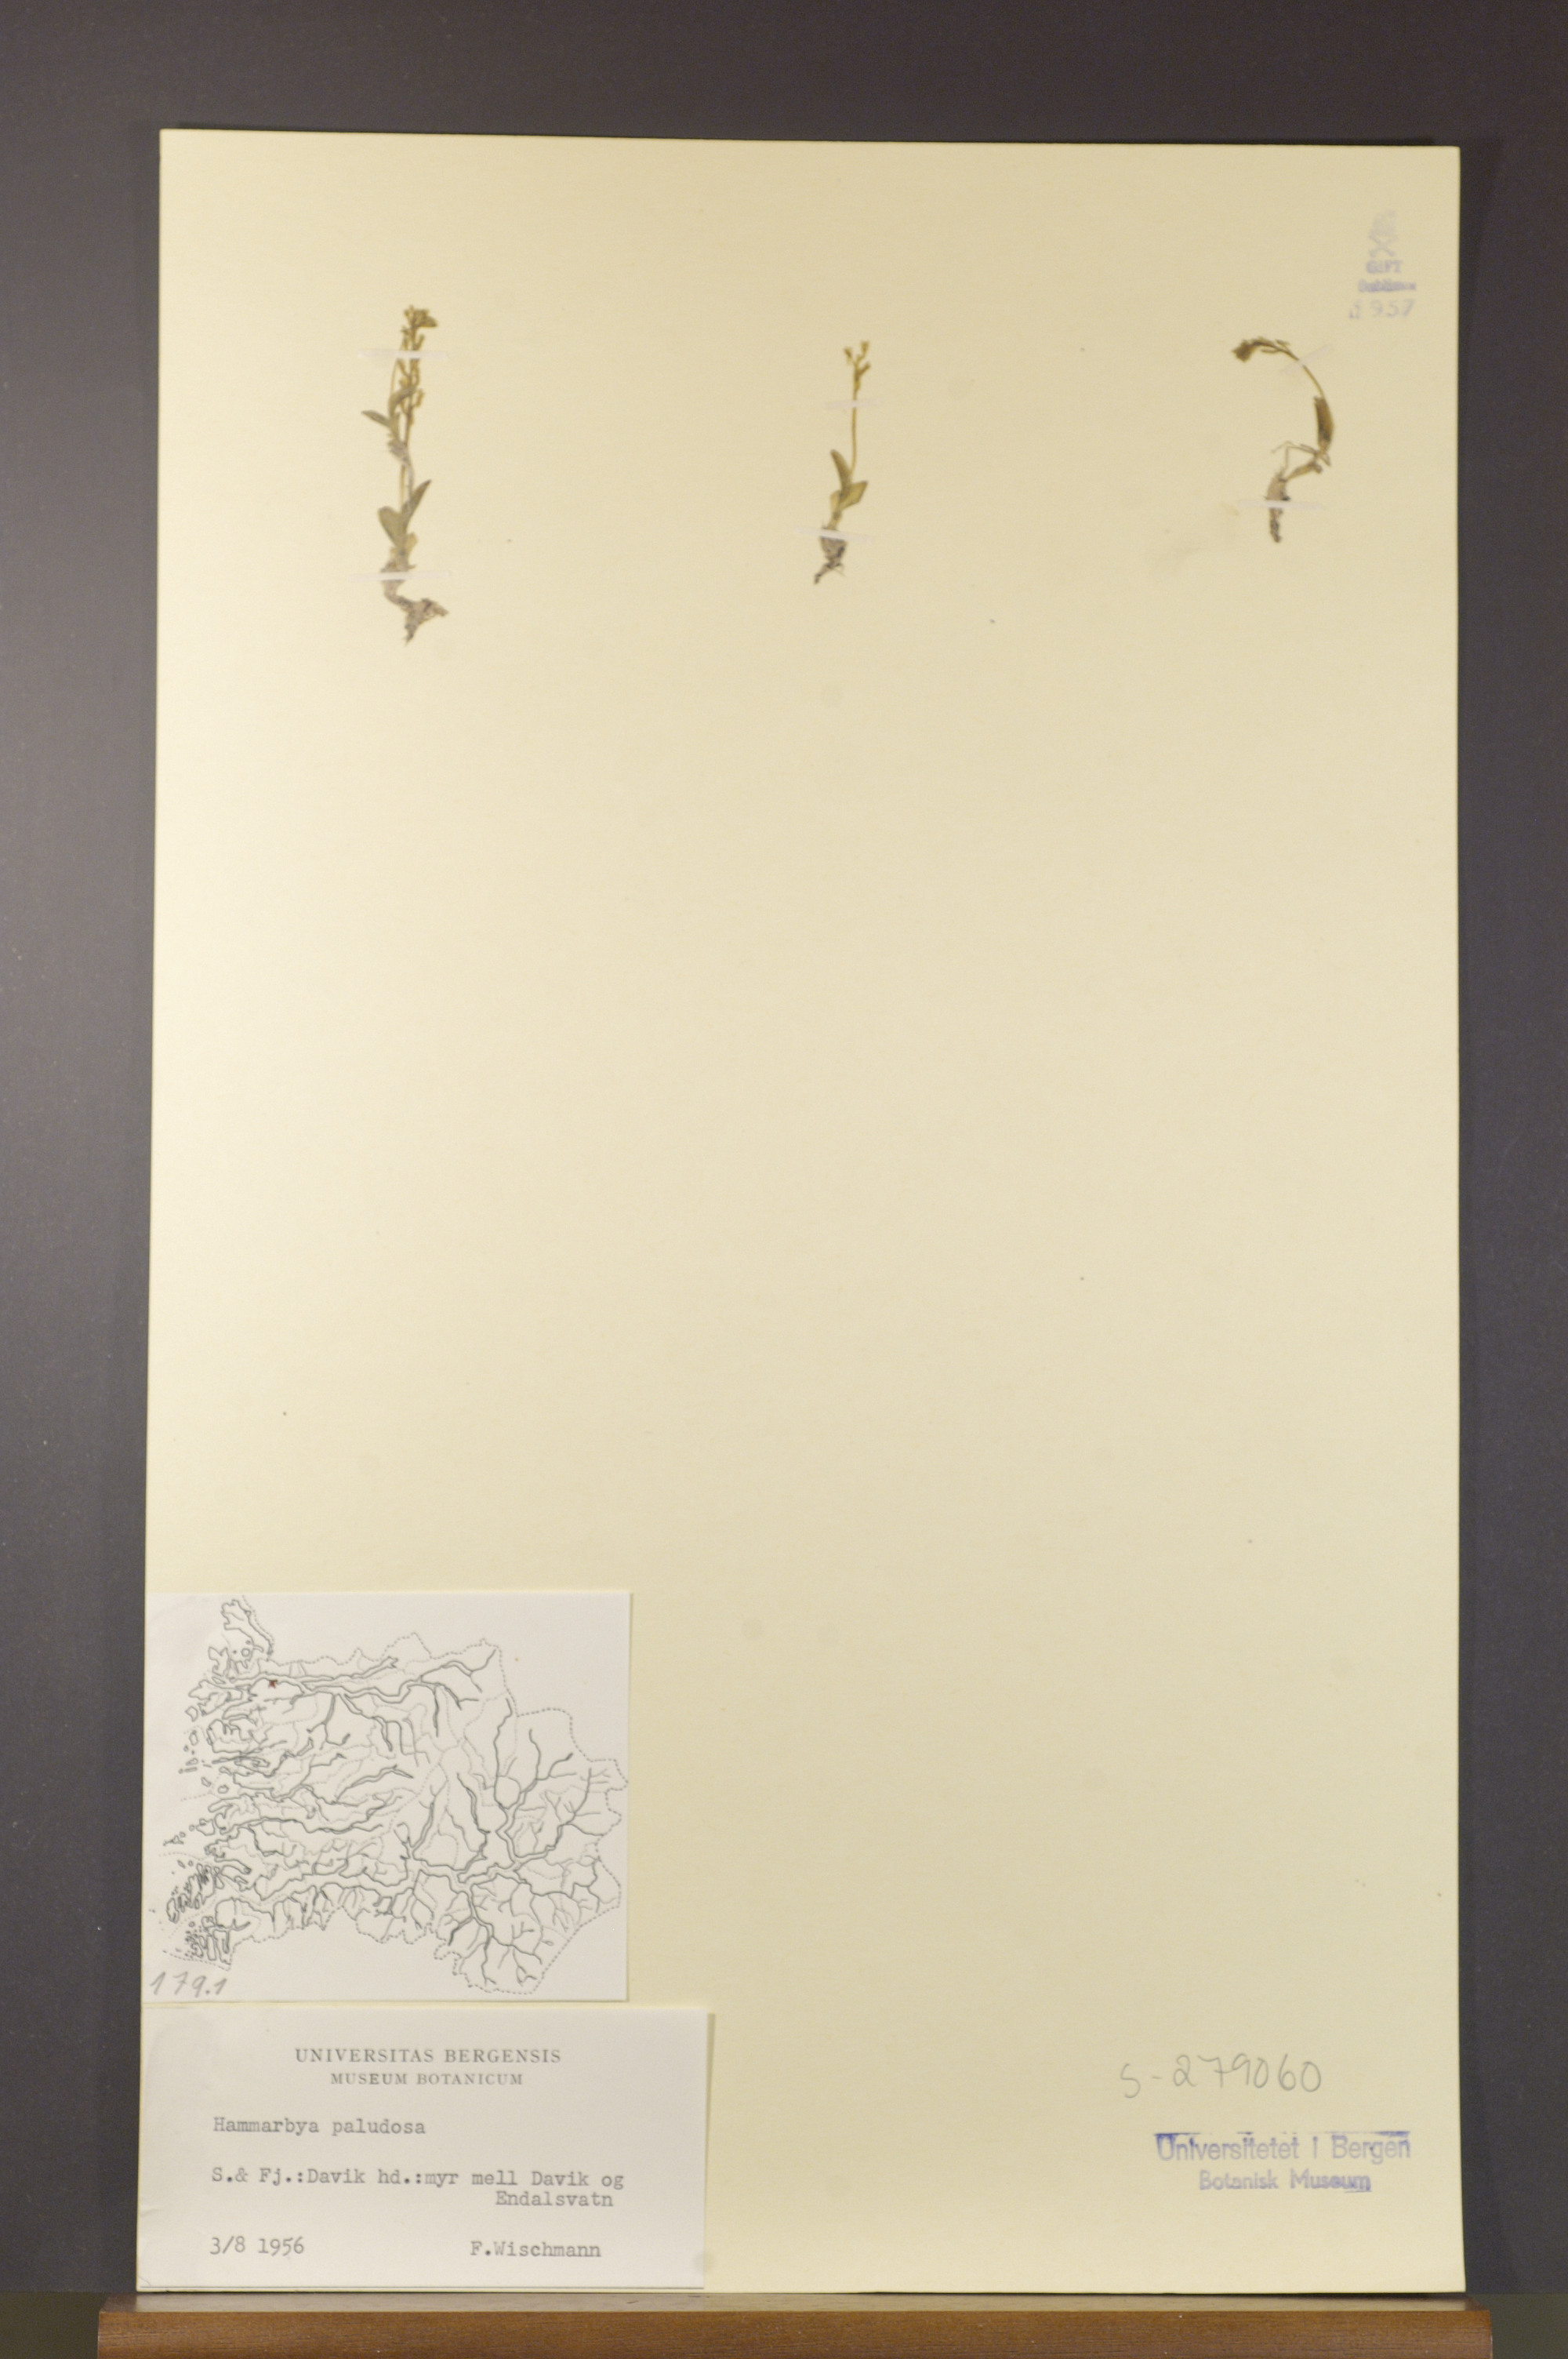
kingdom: Plantae
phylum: Tracheophyta
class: Liliopsida
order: Asparagales
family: Orchidaceae
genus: Hammarbya
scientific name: Hammarbya paludosa
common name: Bog orchid
